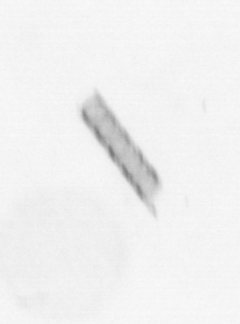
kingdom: Chromista
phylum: Ochrophyta
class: Bacillariophyceae
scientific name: Bacillariophyceae
